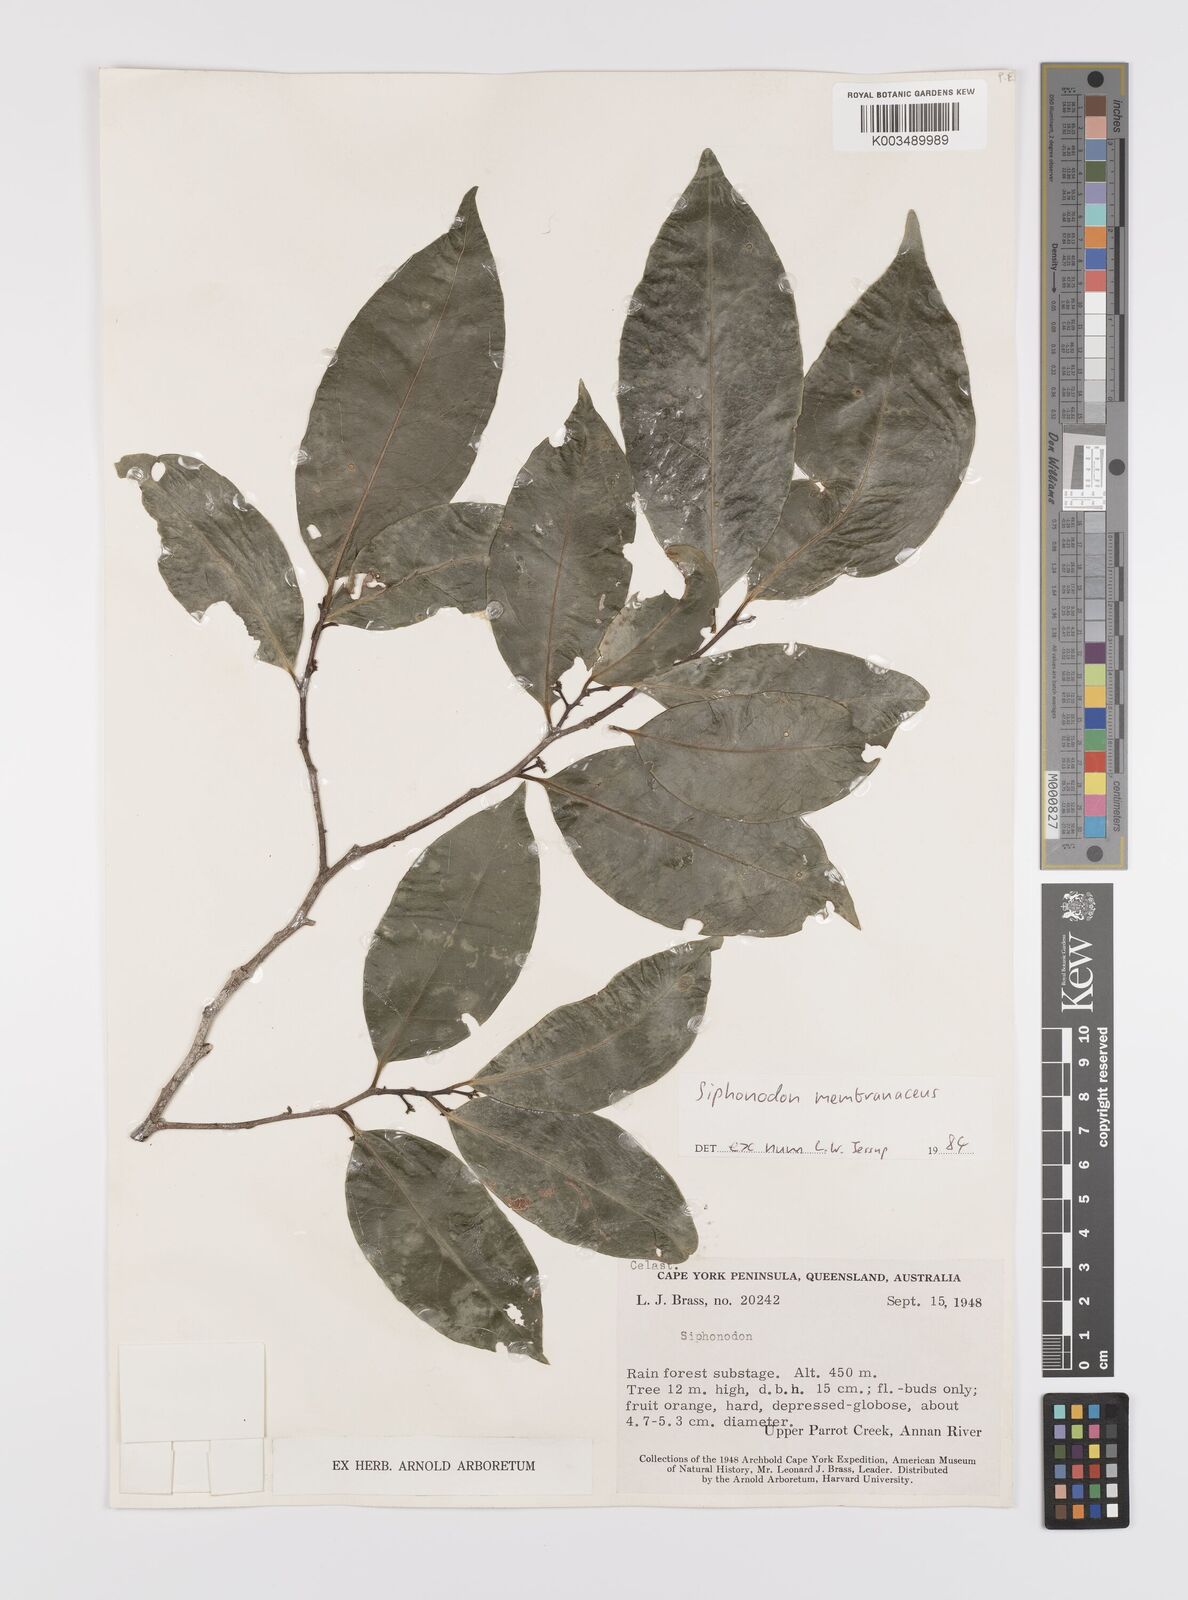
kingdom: Plantae
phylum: Tracheophyta
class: Magnoliopsida
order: Celastrales
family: Celastraceae
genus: Siphonodon
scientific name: Siphonodon membranaceus
